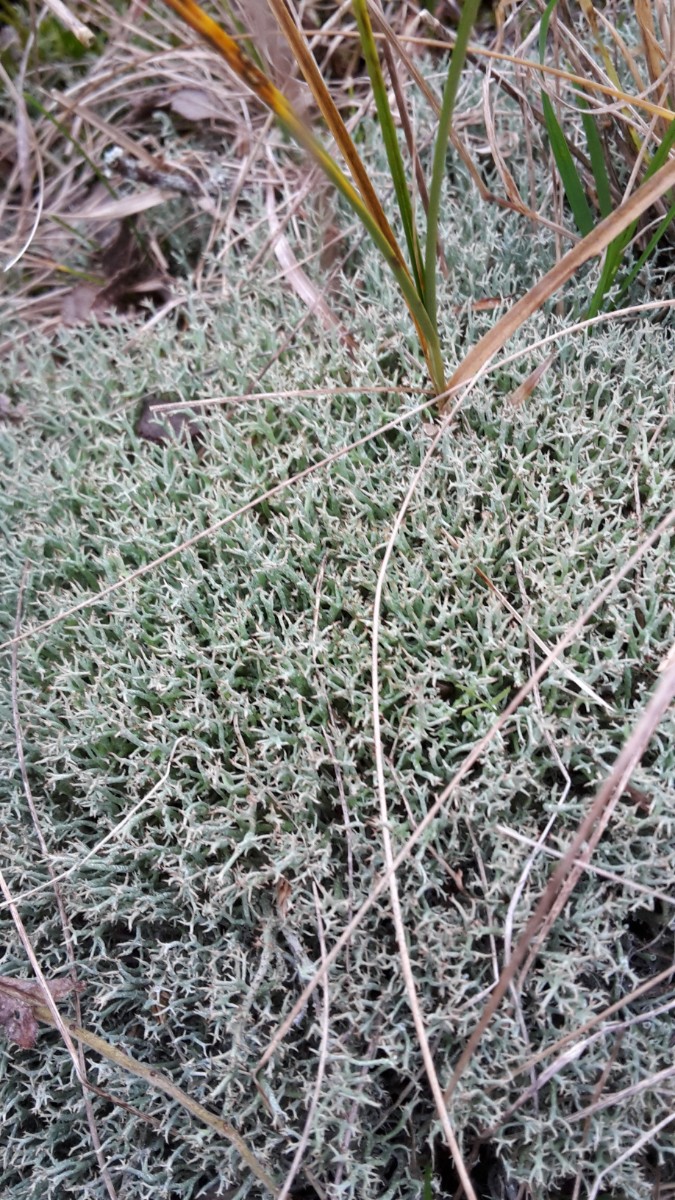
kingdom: Fungi
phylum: Ascomycota
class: Lecanoromycetes
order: Lecanorales
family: Cladoniaceae
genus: Cladonia
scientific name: Cladonia rangiformis
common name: spættet bægerlav
